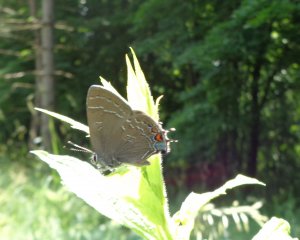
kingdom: Animalia
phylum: Arthropoda
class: Insecta
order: Lepidoptera
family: Lycaenidae
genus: Satyrium
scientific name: Satyrium calanus
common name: Banded Hairstreak
